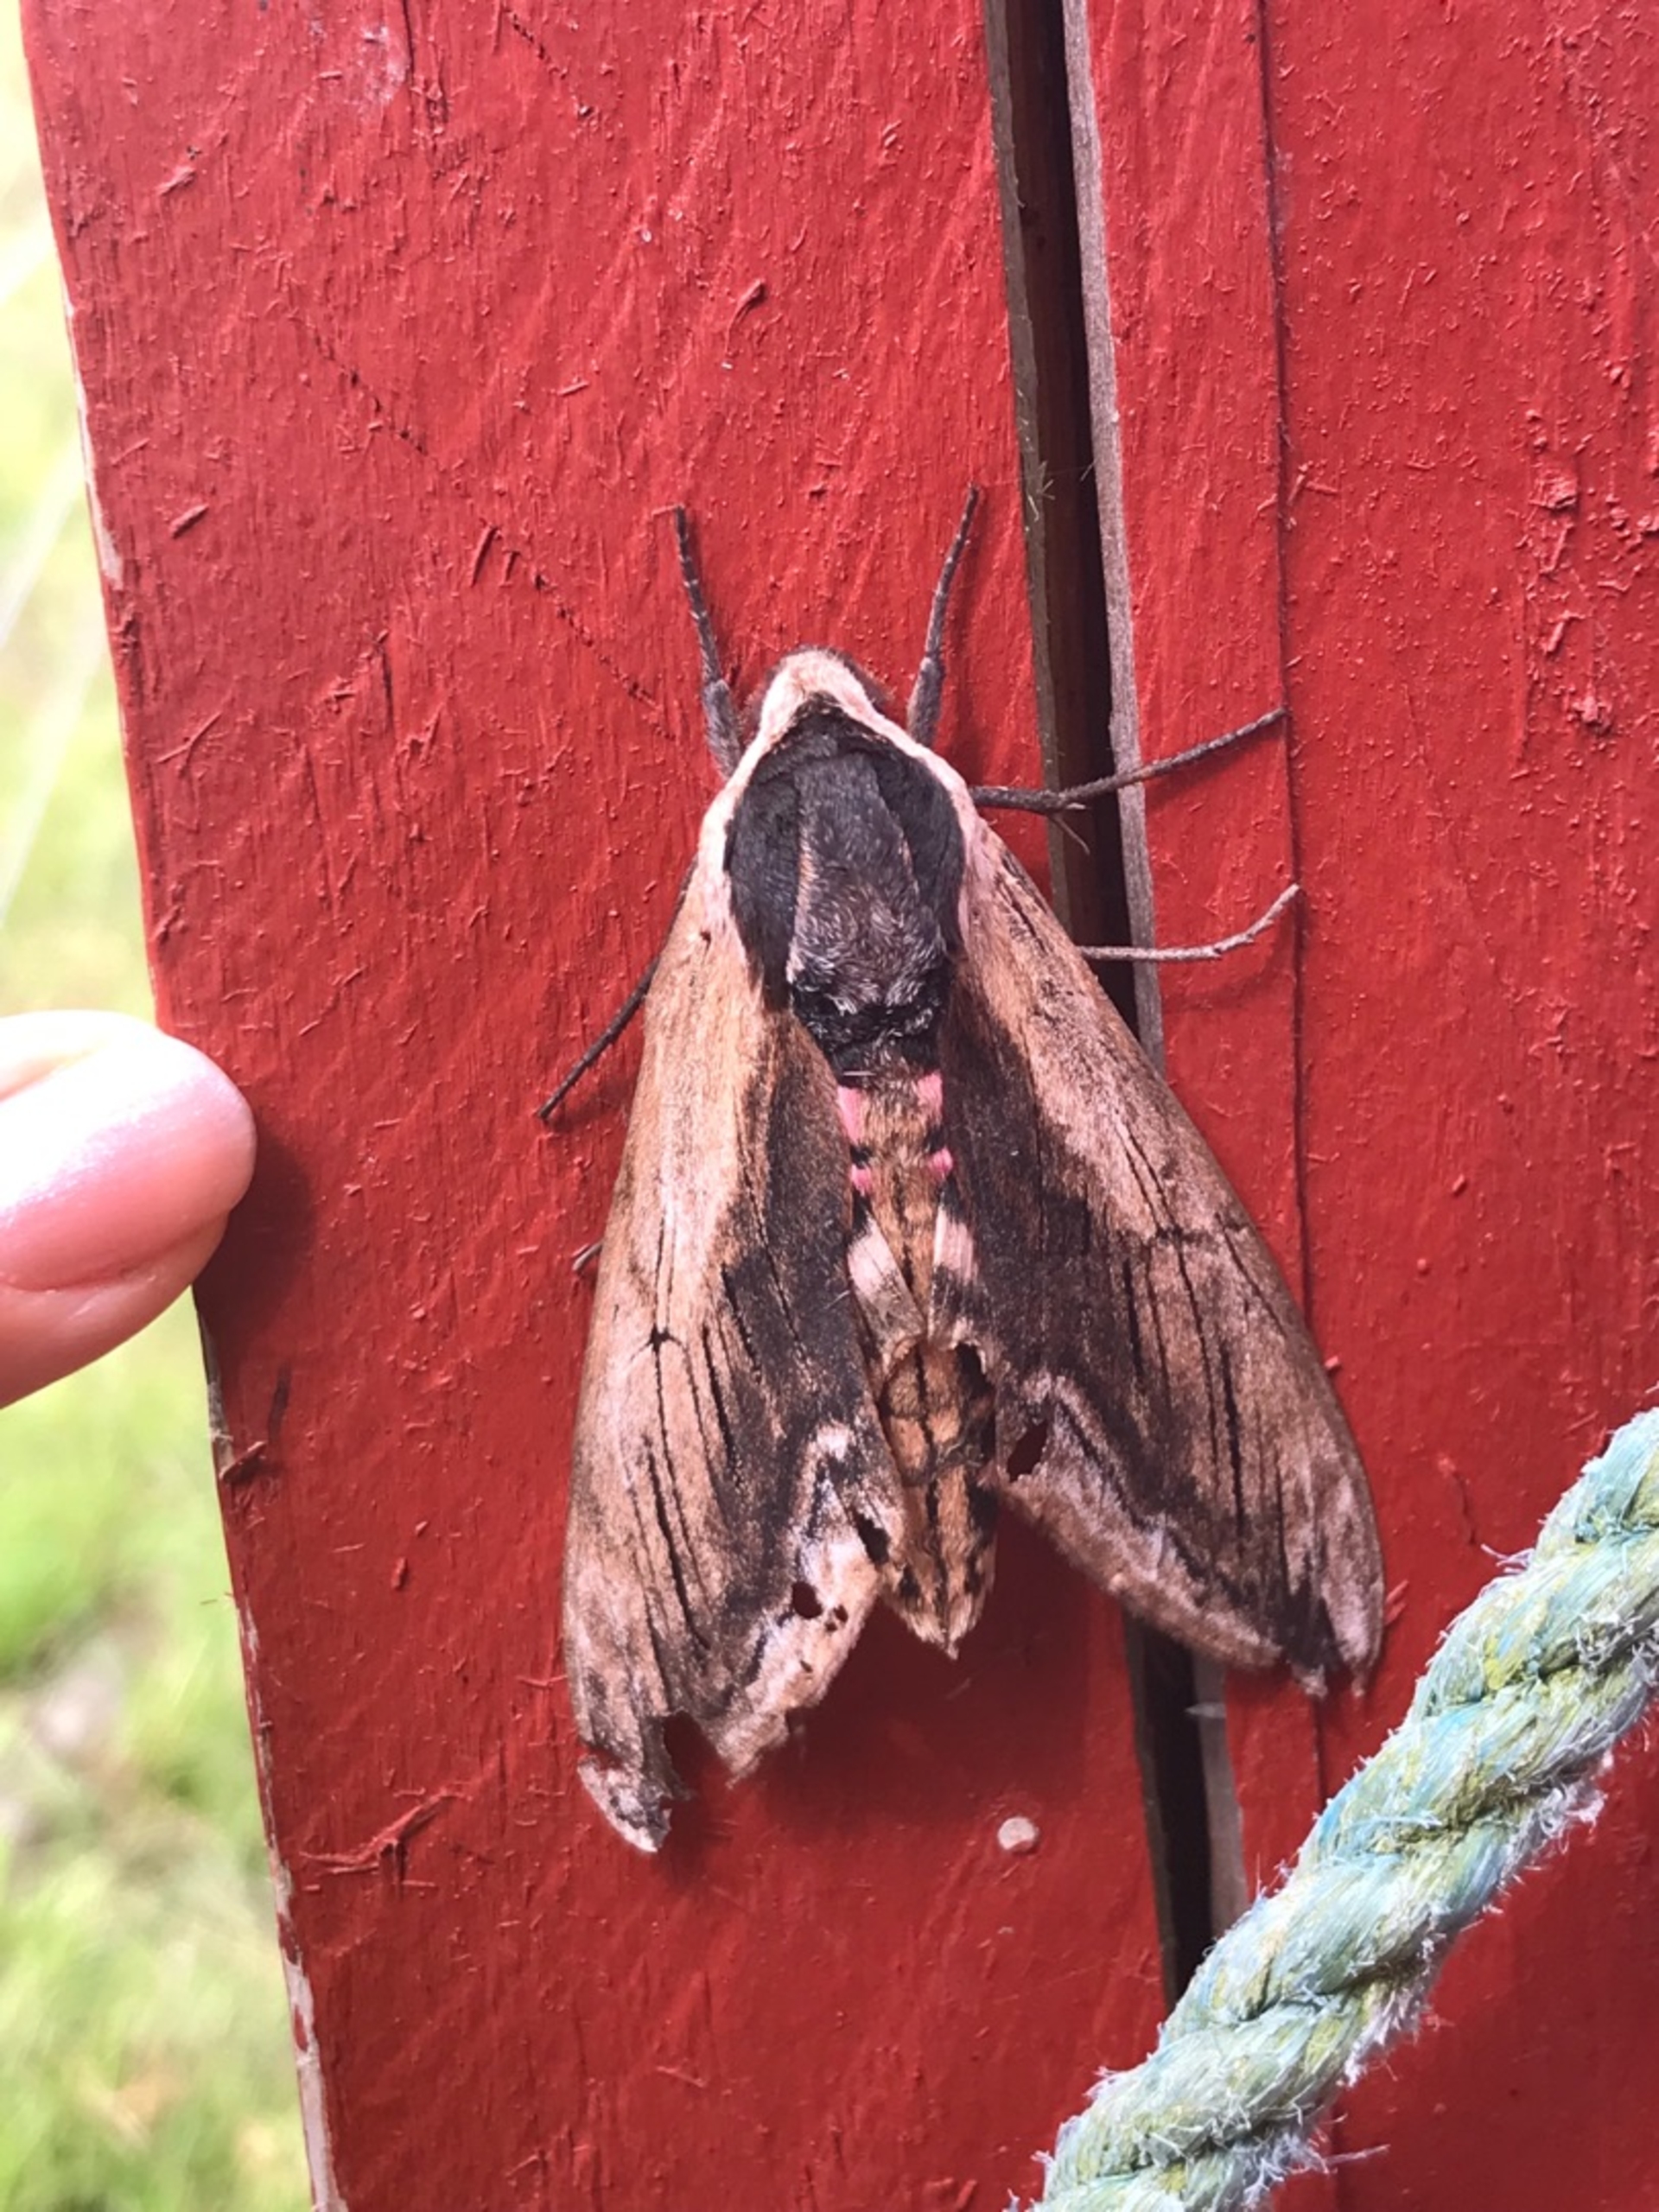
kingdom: Animalia
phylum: Arthropoda
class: Insecta
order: Lepidoptera
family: Sphingidae
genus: Sphinx
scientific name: Sphinx ligustri
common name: Ligustersværmer
